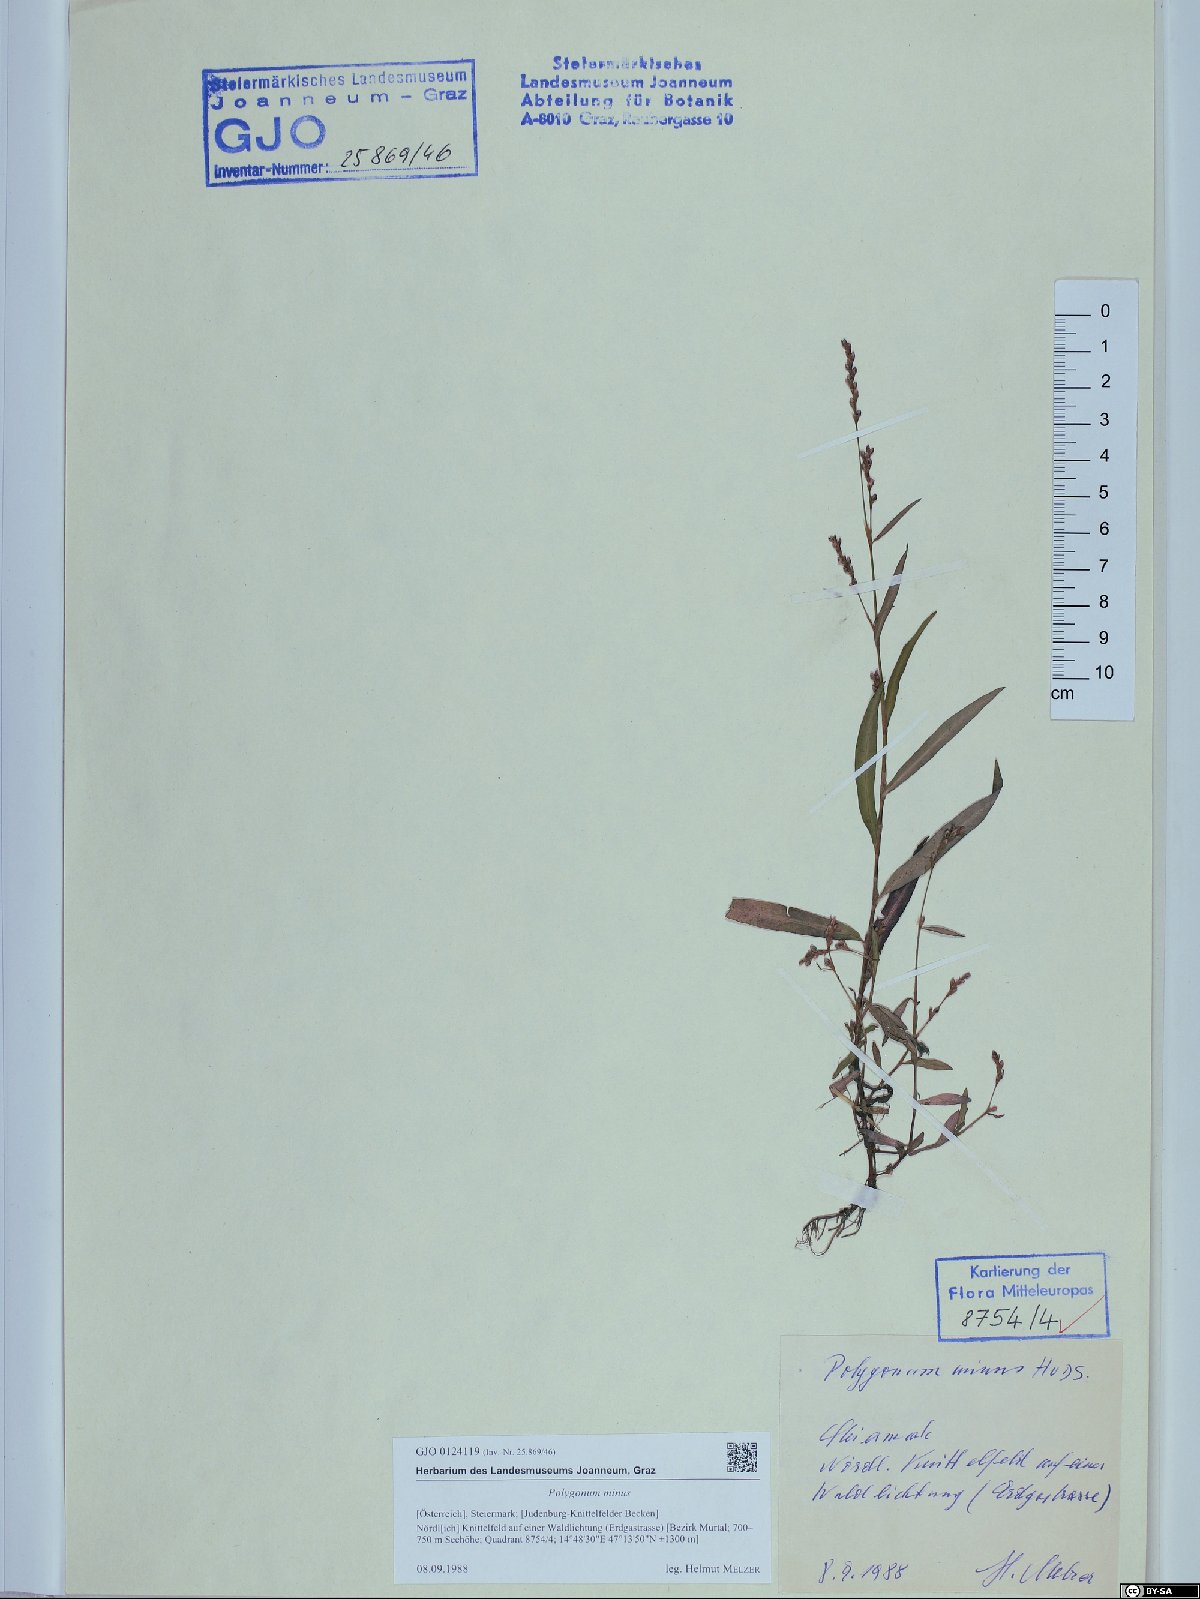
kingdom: Plantae
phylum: Tracheophyta
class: Magnoliopsida
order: Caryophyllales
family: Polygonaceae
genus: Persicaria
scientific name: Persicaria minor
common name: Small water-pepper
